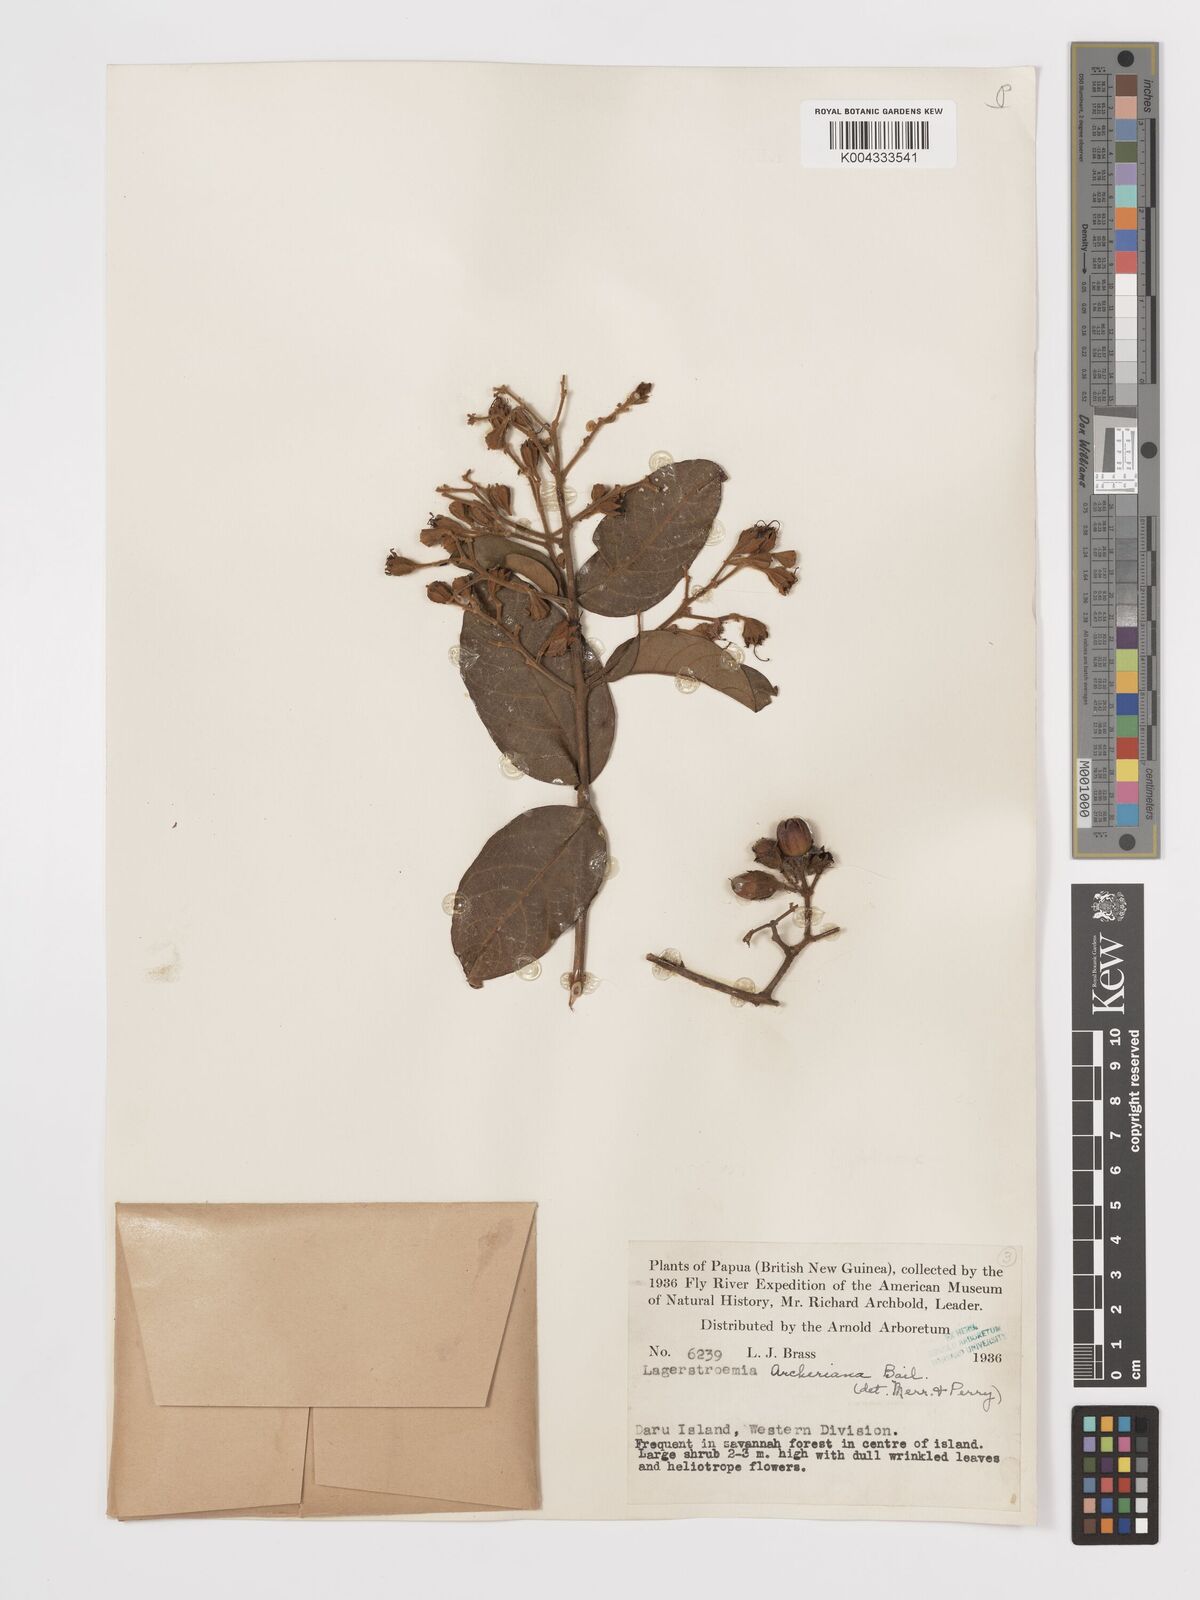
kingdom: Plantae
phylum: Tracheophyta
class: Magnoliopsida
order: Myrtales
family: Lythraceae
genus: Lagerstroemia
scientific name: Lagerstroemia engleriana
